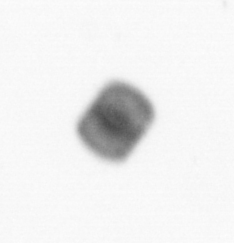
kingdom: Chromista
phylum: Ochrophyta
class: Bacillariophyceae
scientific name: Bacillariophyceae
